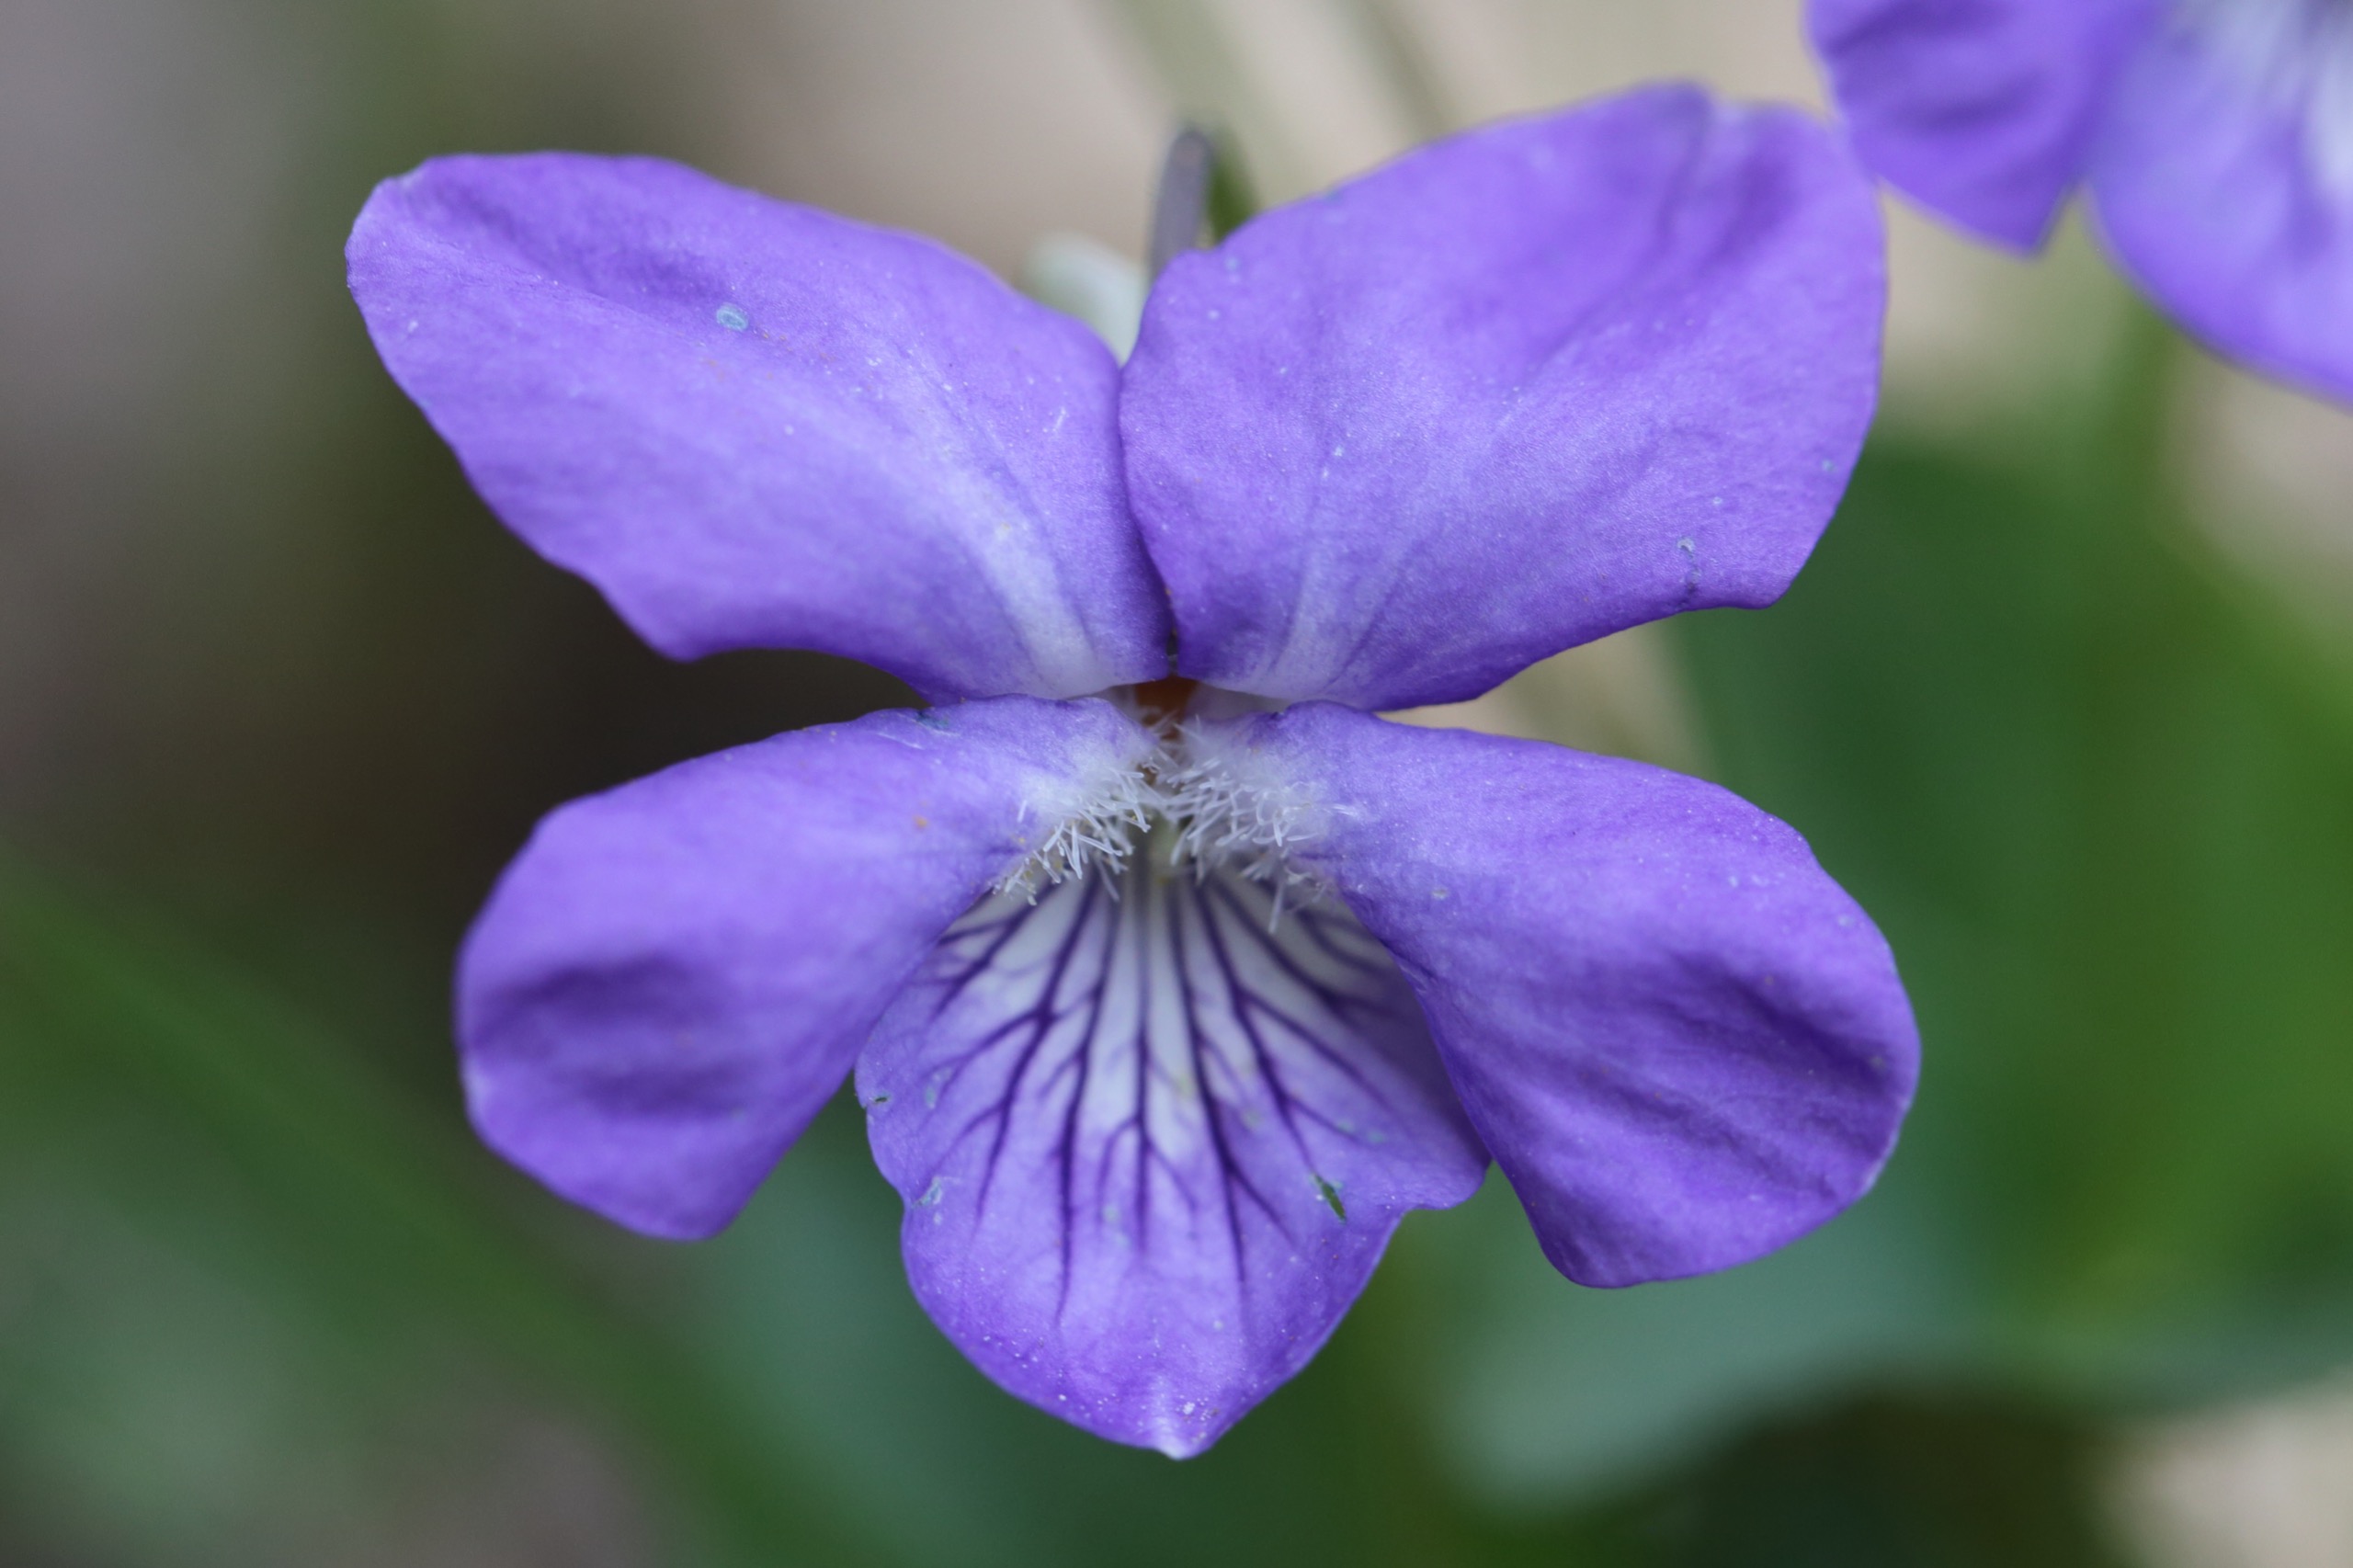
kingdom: Plantae
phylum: Tracheophyta
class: Magnoliopsida
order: Malpighiales
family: Violaceae
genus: Viola
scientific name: Viola riviniana
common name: Krat-viol
